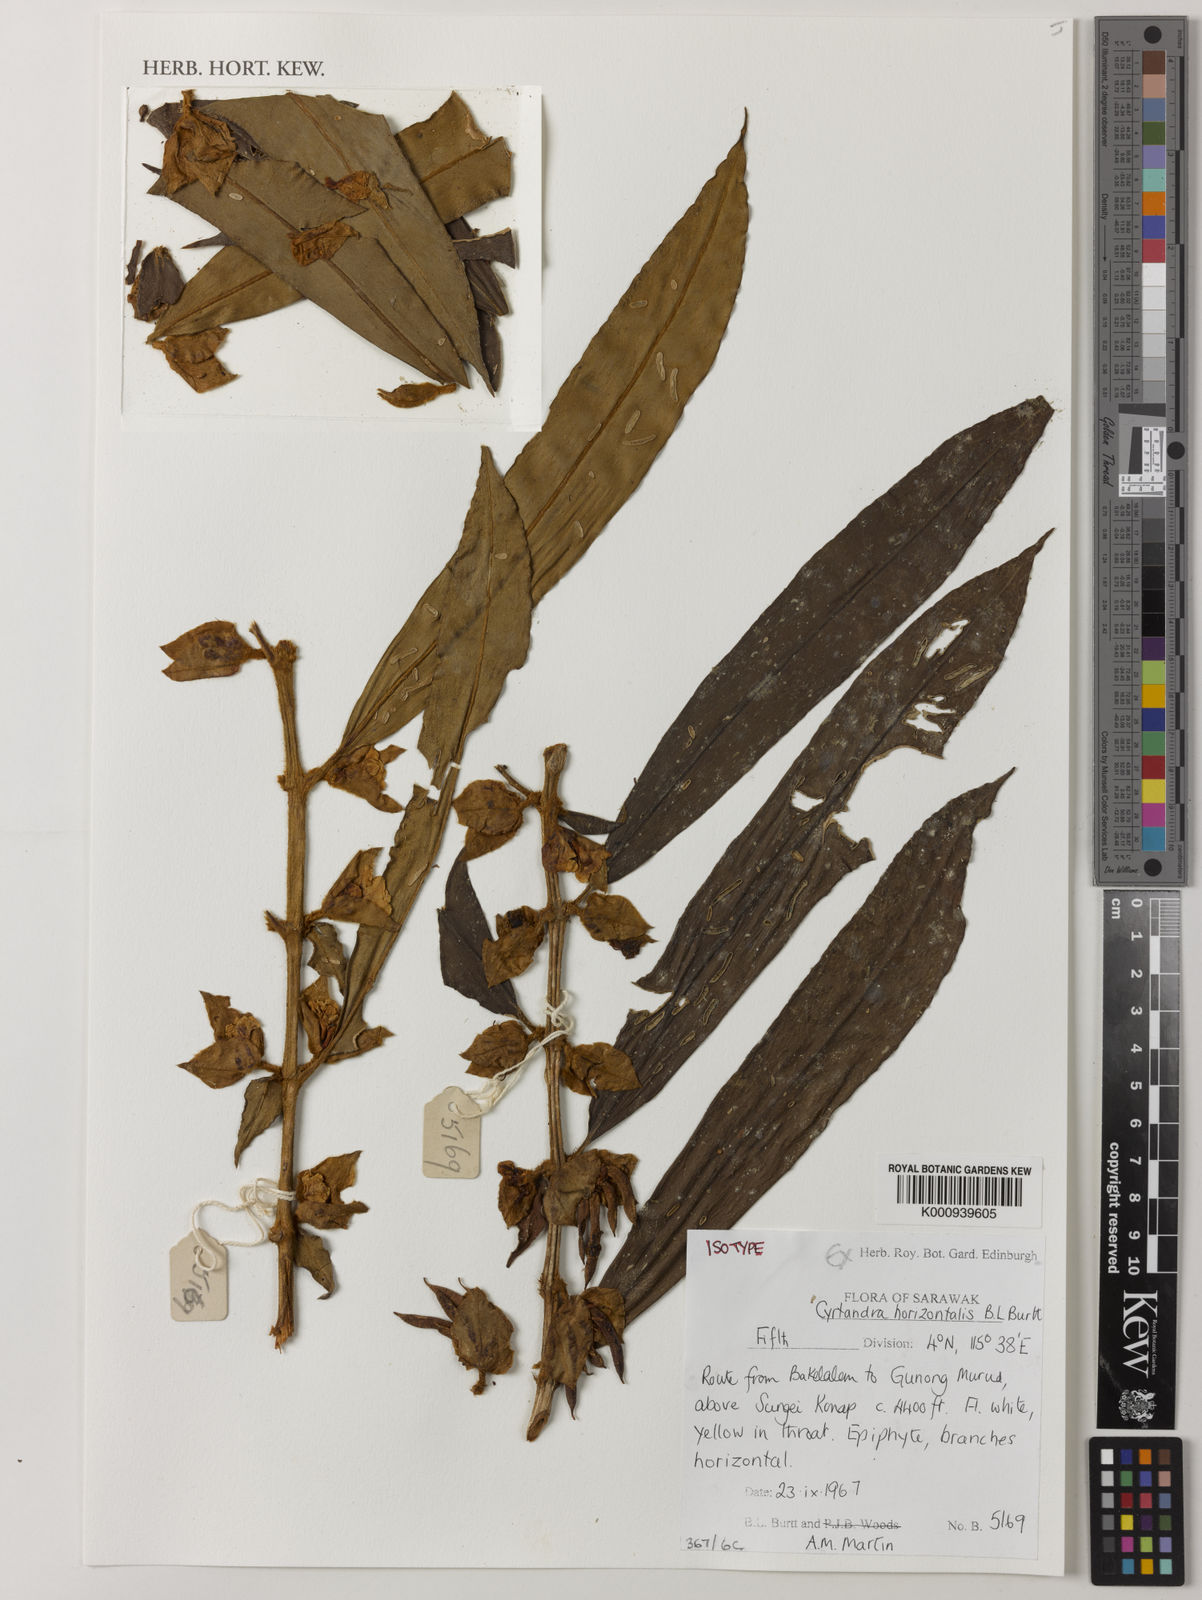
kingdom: Plantae
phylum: Tracheophyta
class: Magnoliopsida
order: Lamiales
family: Gesneriaceae
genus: Cyrtandra
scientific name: Cyrtandra horizontalis
